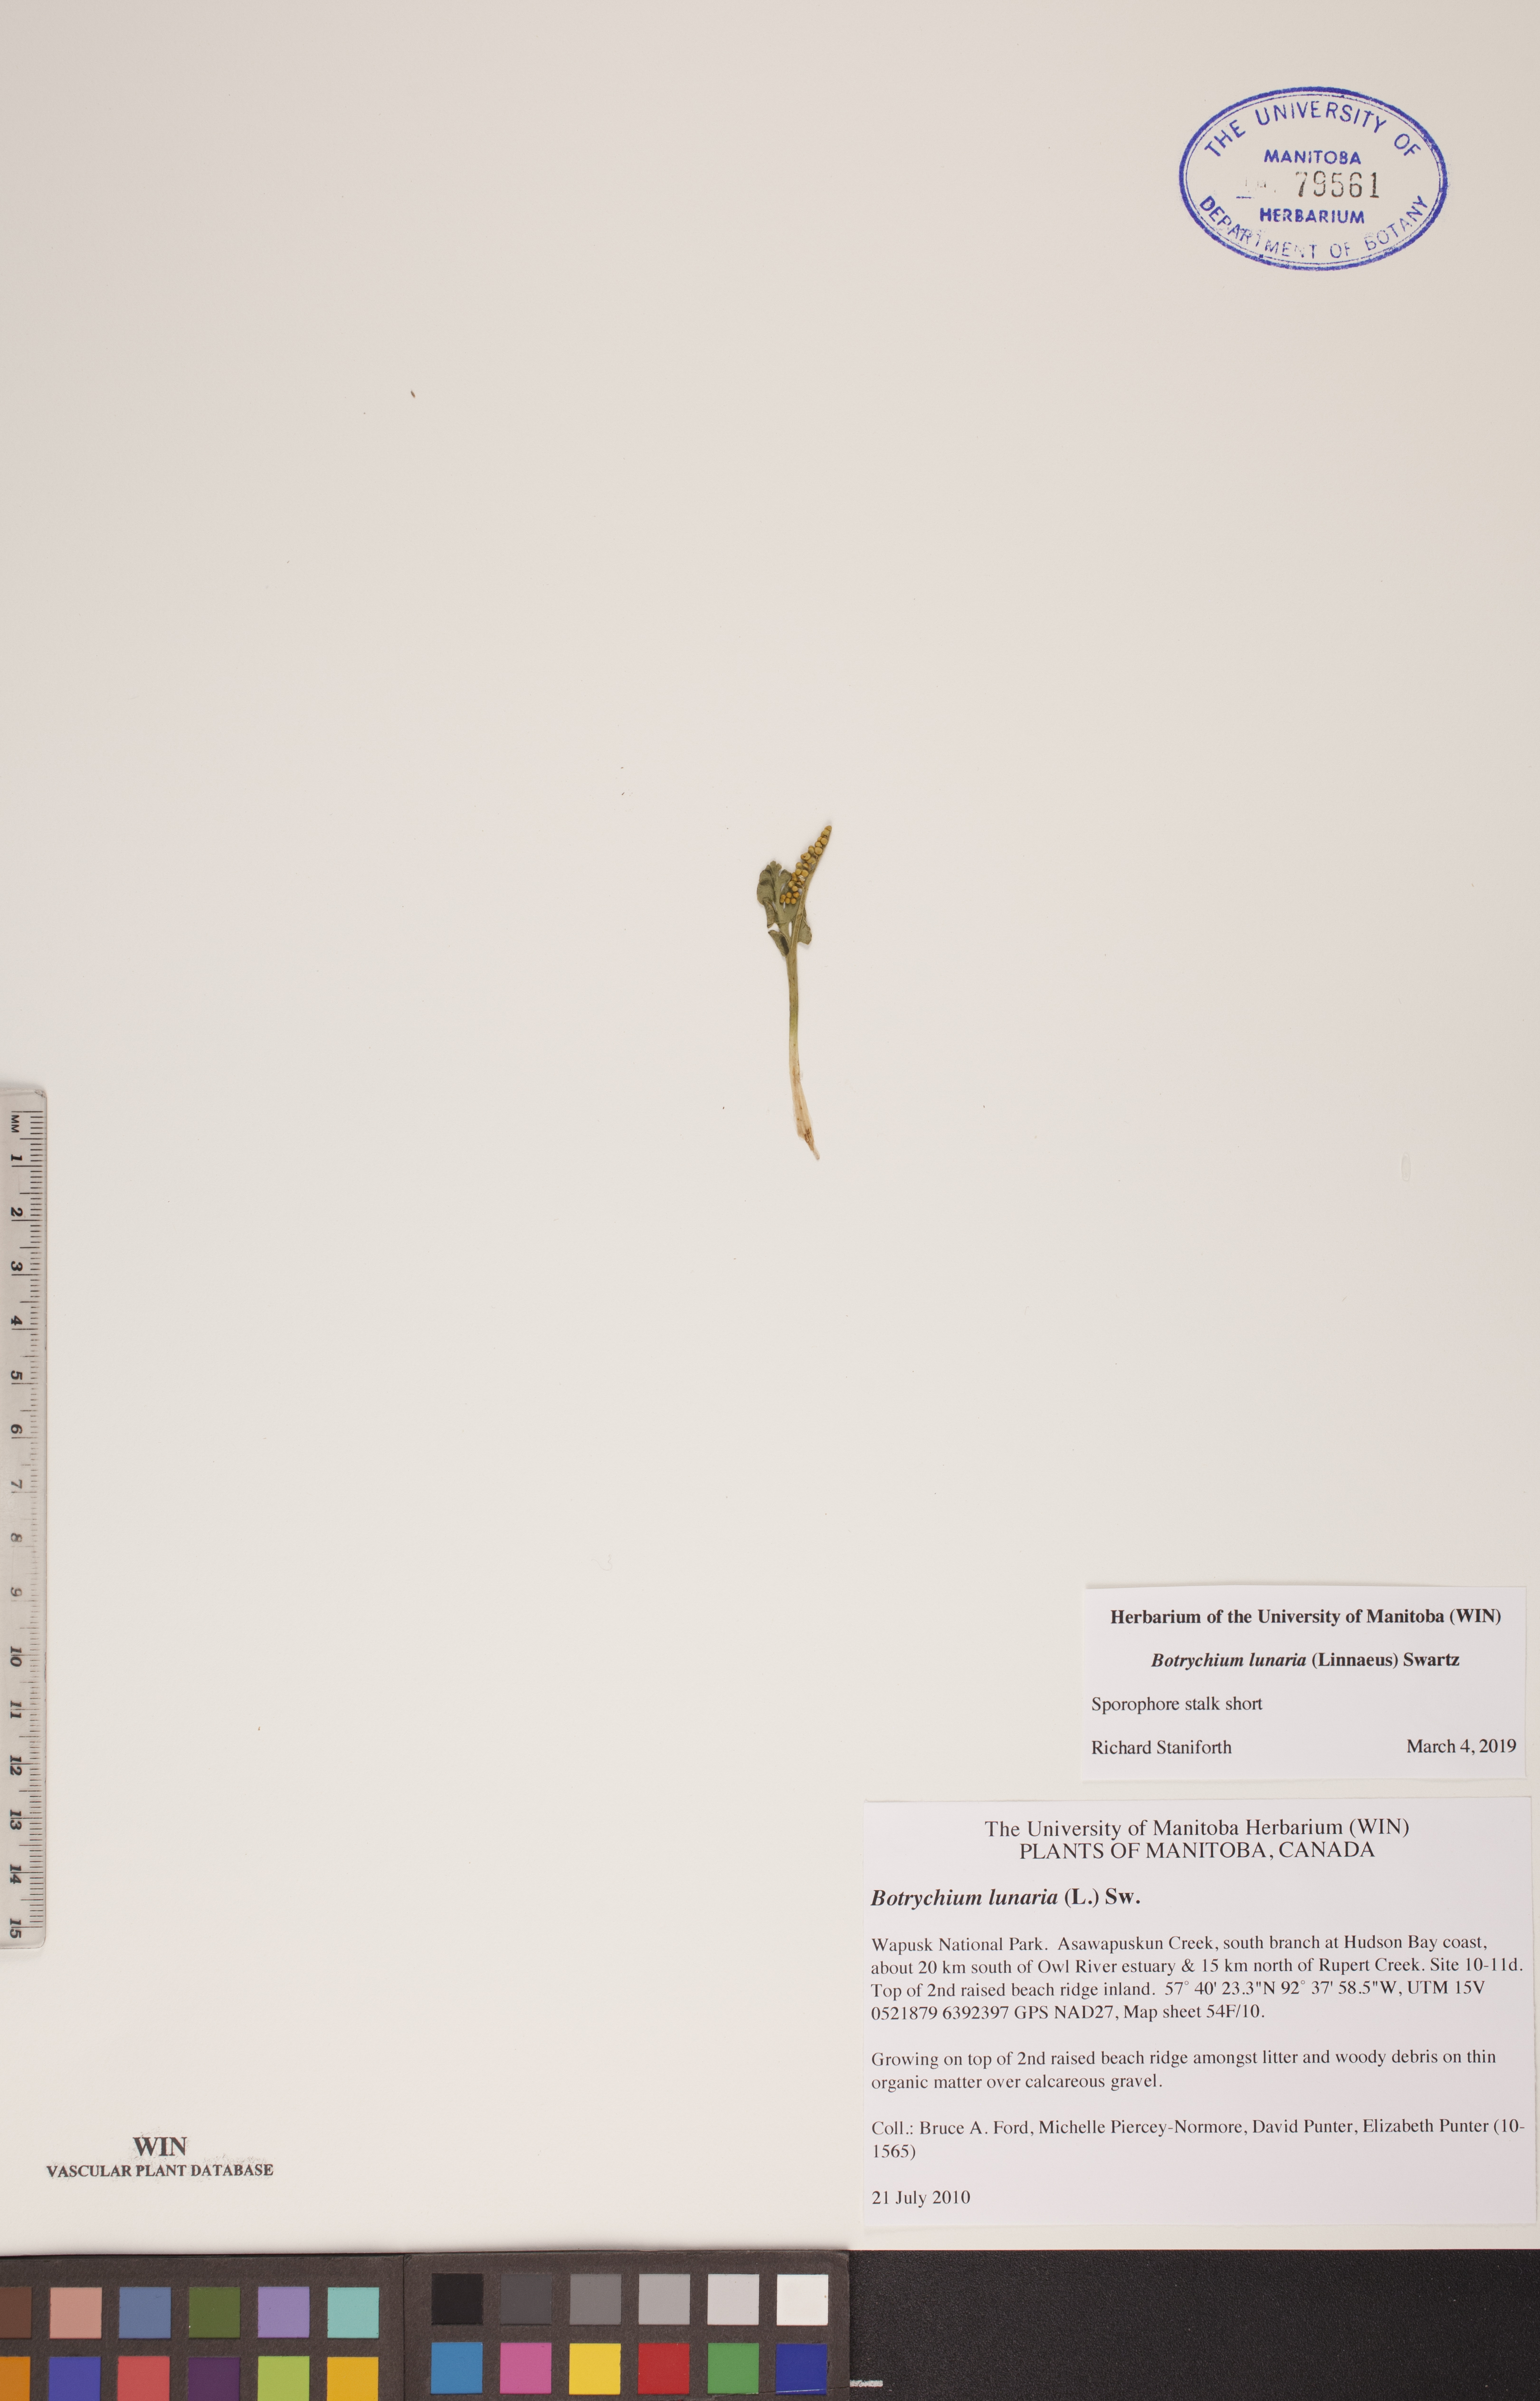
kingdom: Plantae
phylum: Tracheophyta
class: Polypodiopsida
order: Ophioglossales
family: Ophioglossaceae
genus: Botrychium
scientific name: Botrychium lunaria
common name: Moonwort
